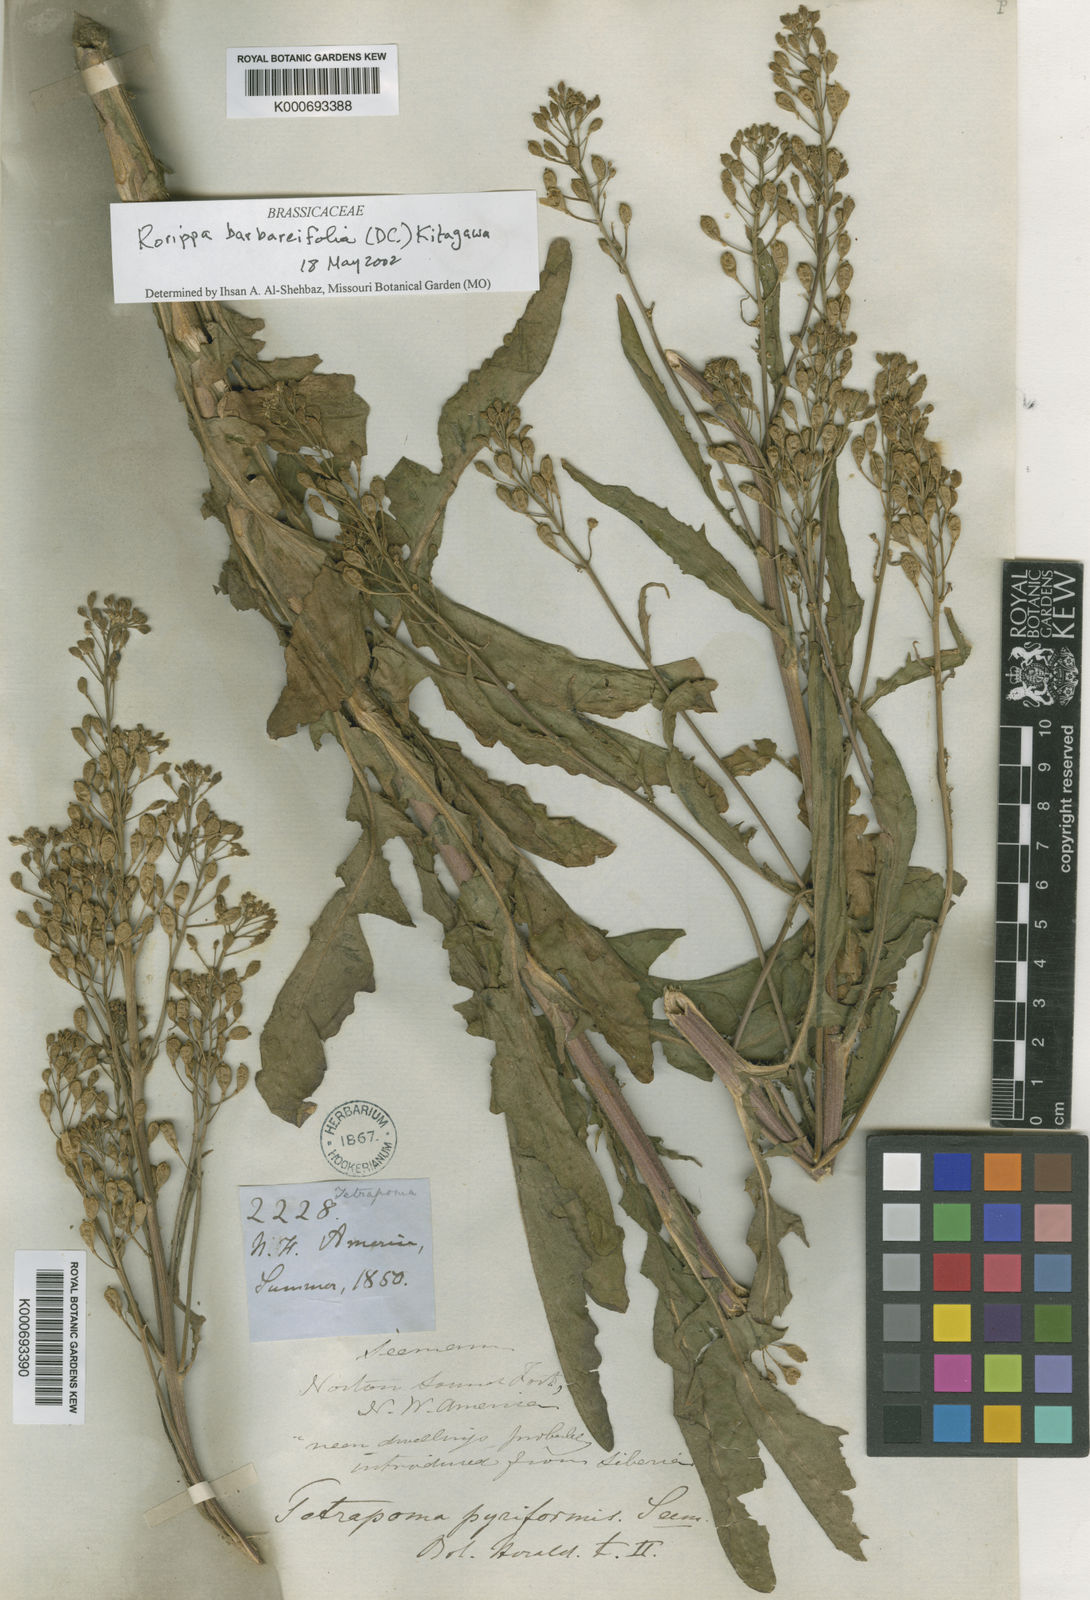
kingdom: Plantae
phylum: Tracheophyta
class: Magnoliopsida
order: Brassicales
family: Brassicaceae
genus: Rorippa
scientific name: Rorippa
